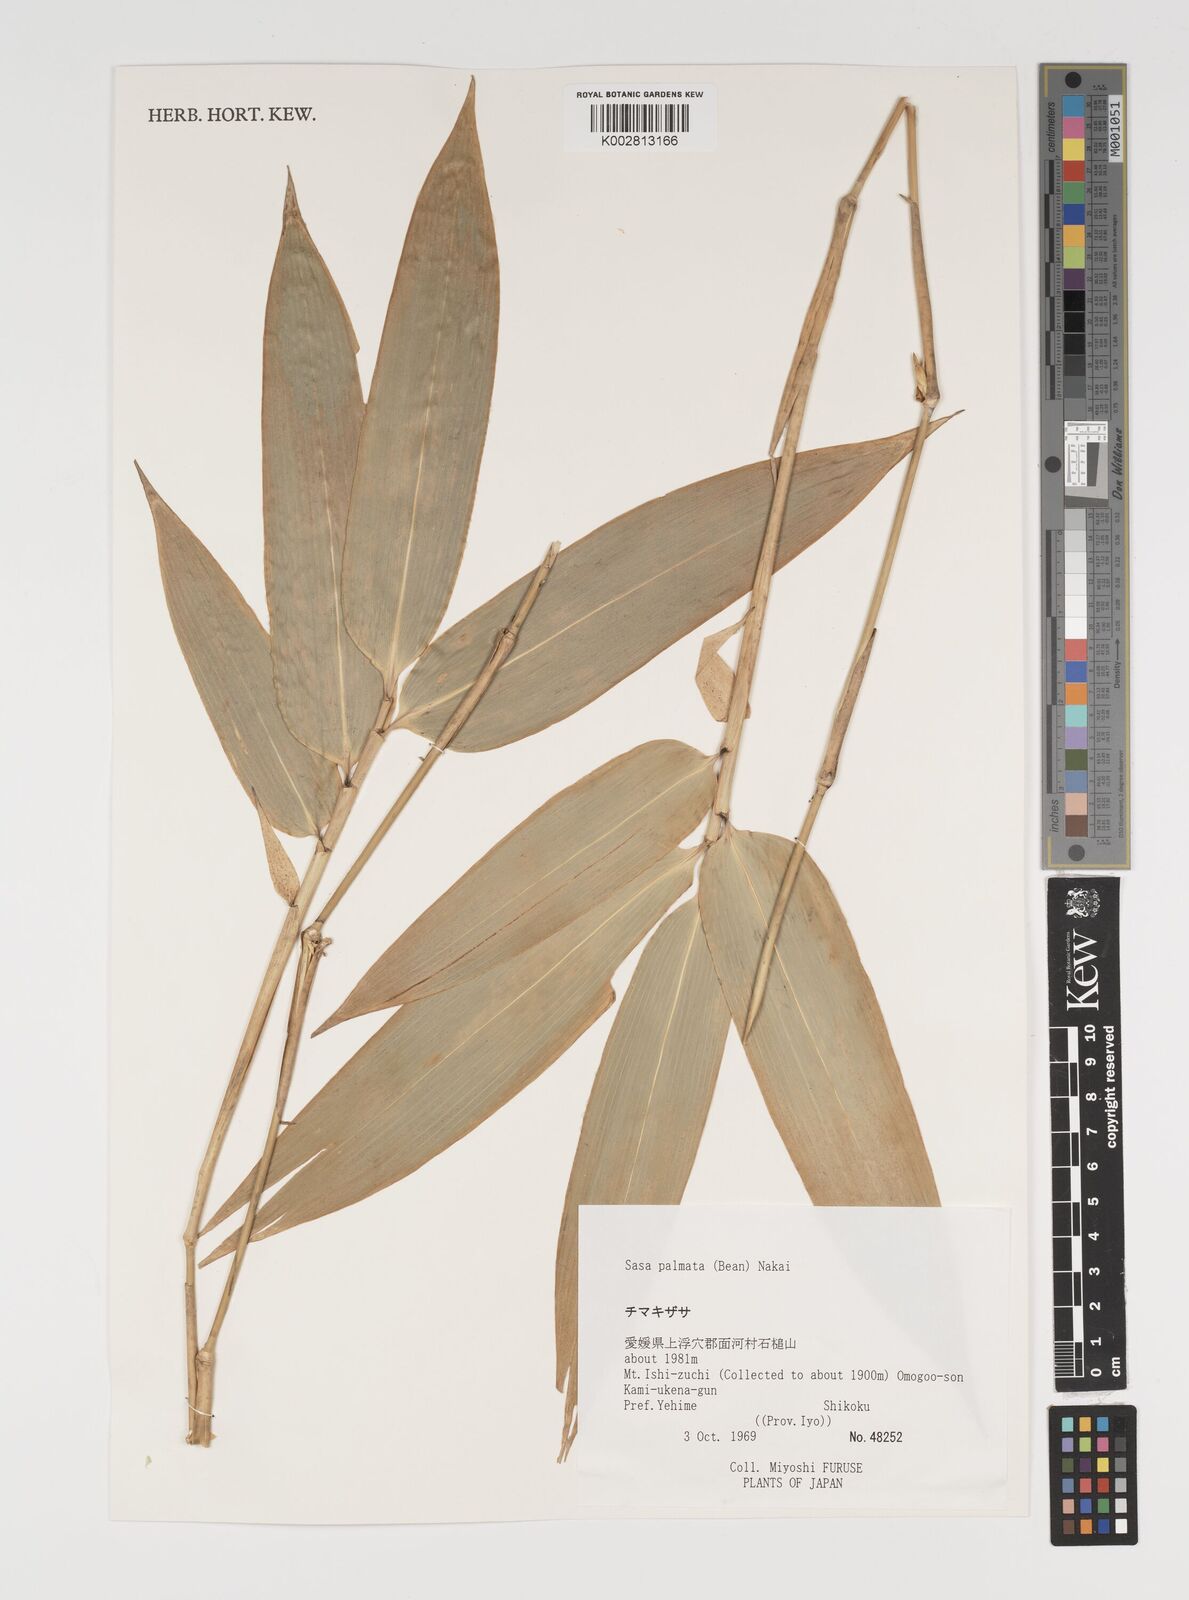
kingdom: Plantae
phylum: Tracheophyta
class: Liliopsida
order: Poales
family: Poaceae
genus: Sasa
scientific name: Sasa palmata
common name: Broad-leaved bamboo
